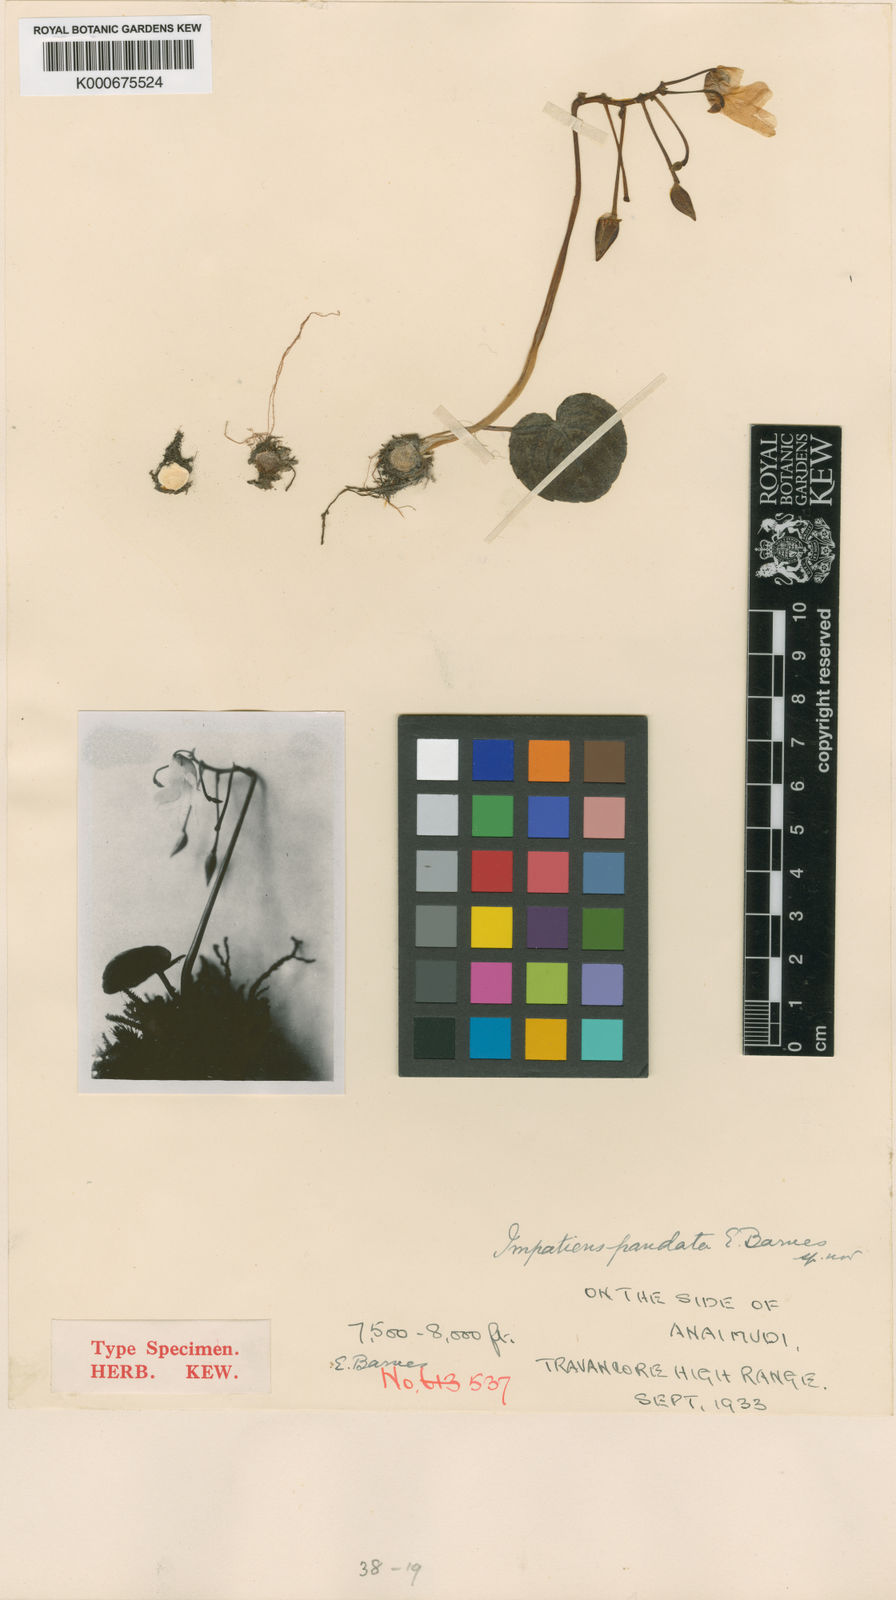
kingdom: Plantae
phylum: Tracheophyta
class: Magnoliopsida
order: Ericales
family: Balsaminaceae
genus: Impatiens
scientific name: Impatiens pandata
